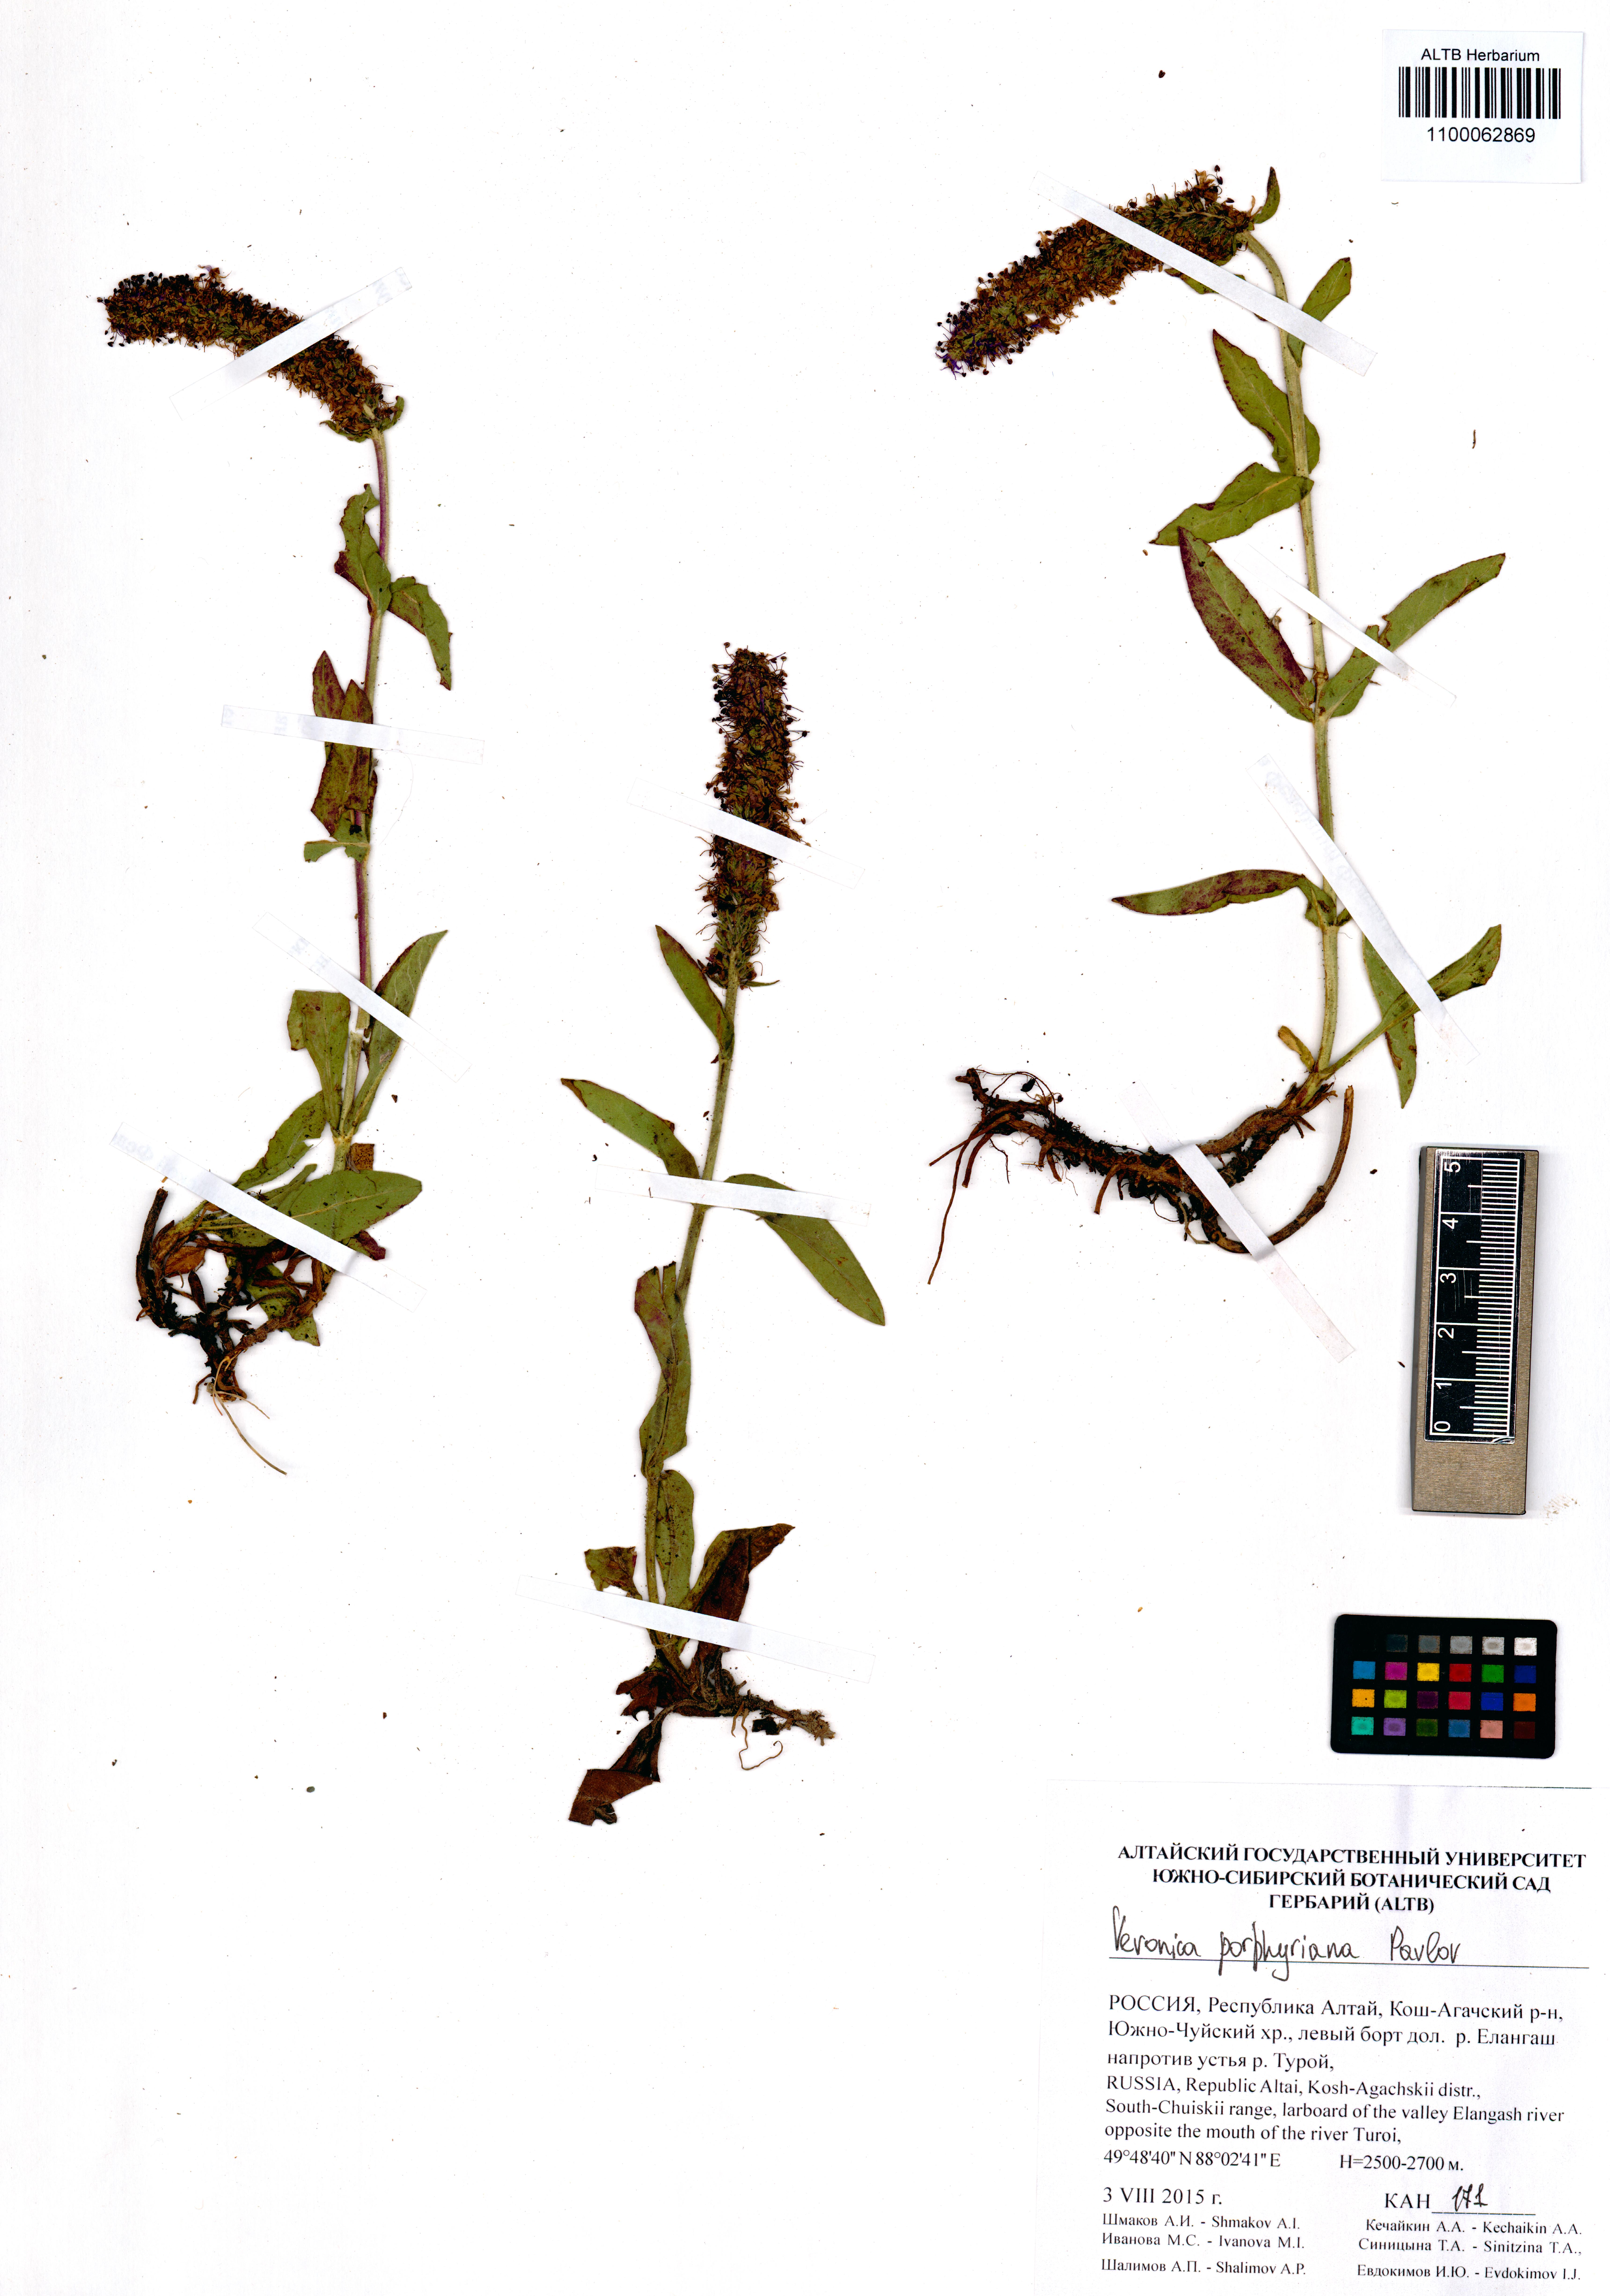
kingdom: Plantae
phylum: Tracheophyta
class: Magnoliopsida
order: Lamiales
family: Plantaginaceae
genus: Veronica
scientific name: Veronica porphyriana
